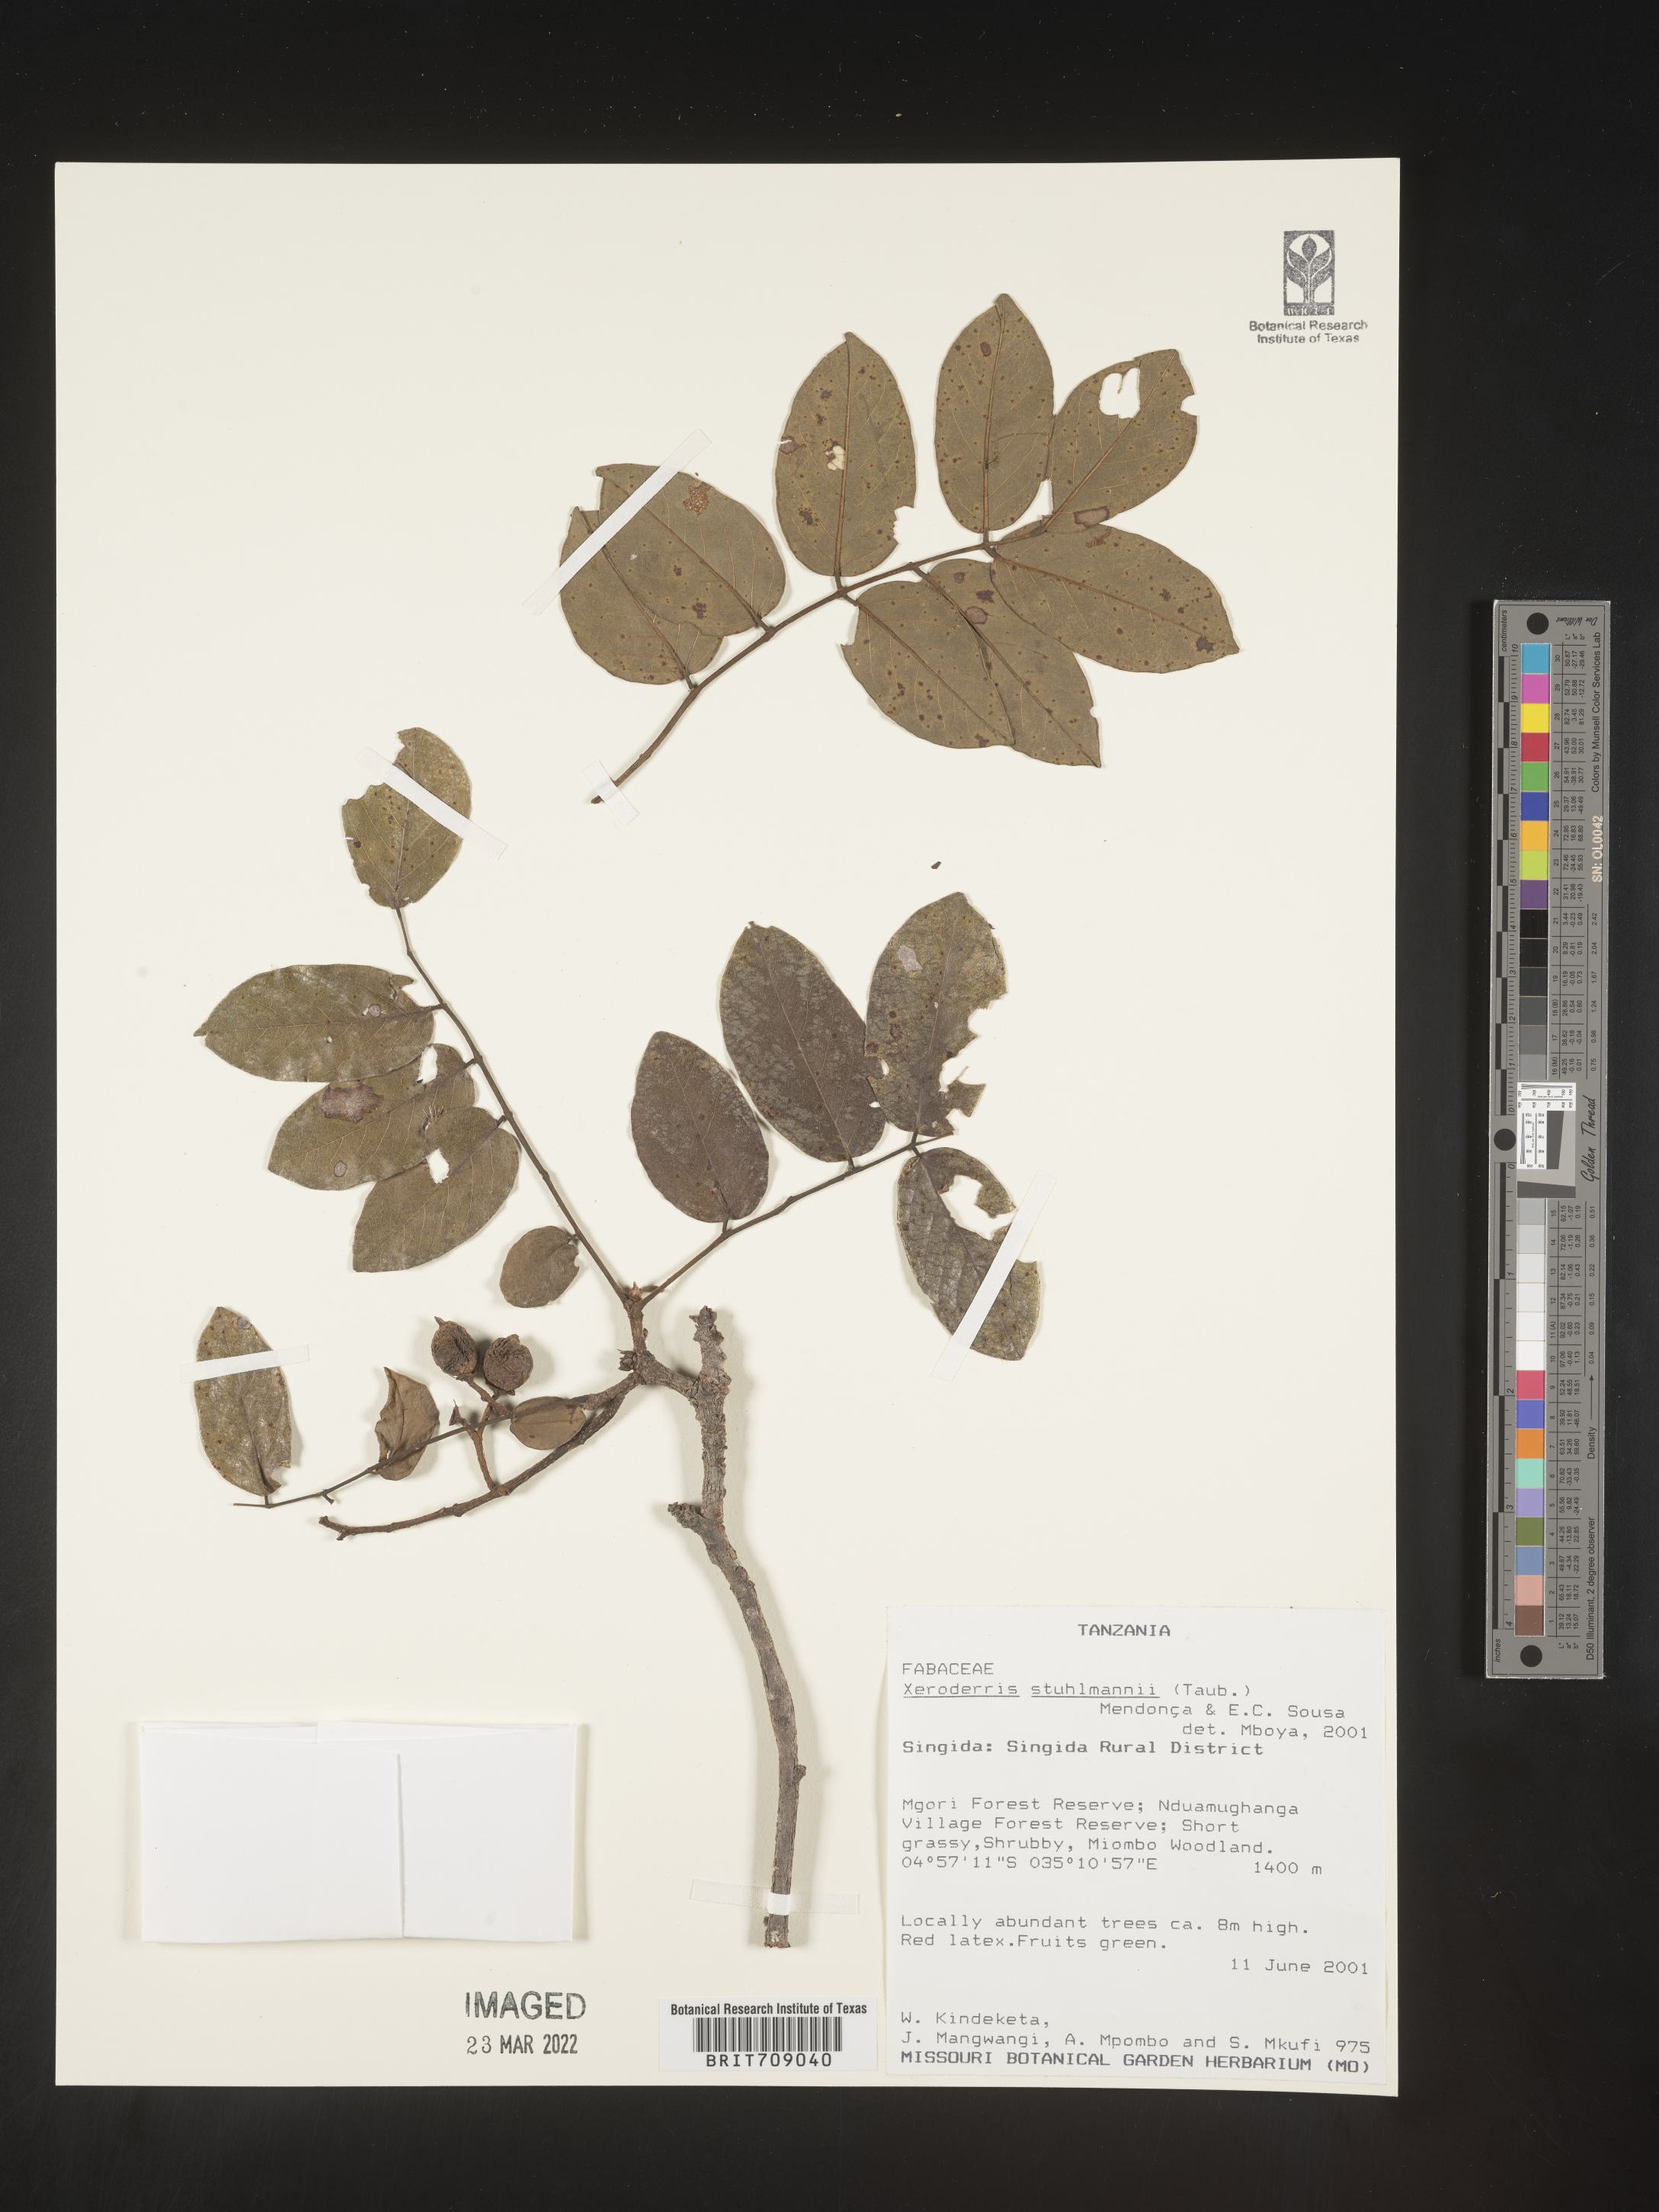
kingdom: Plantae
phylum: Tracheophyta
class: Magnoliopsida
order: Fabales
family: Fabaceae
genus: Aganope
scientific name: Aganope
